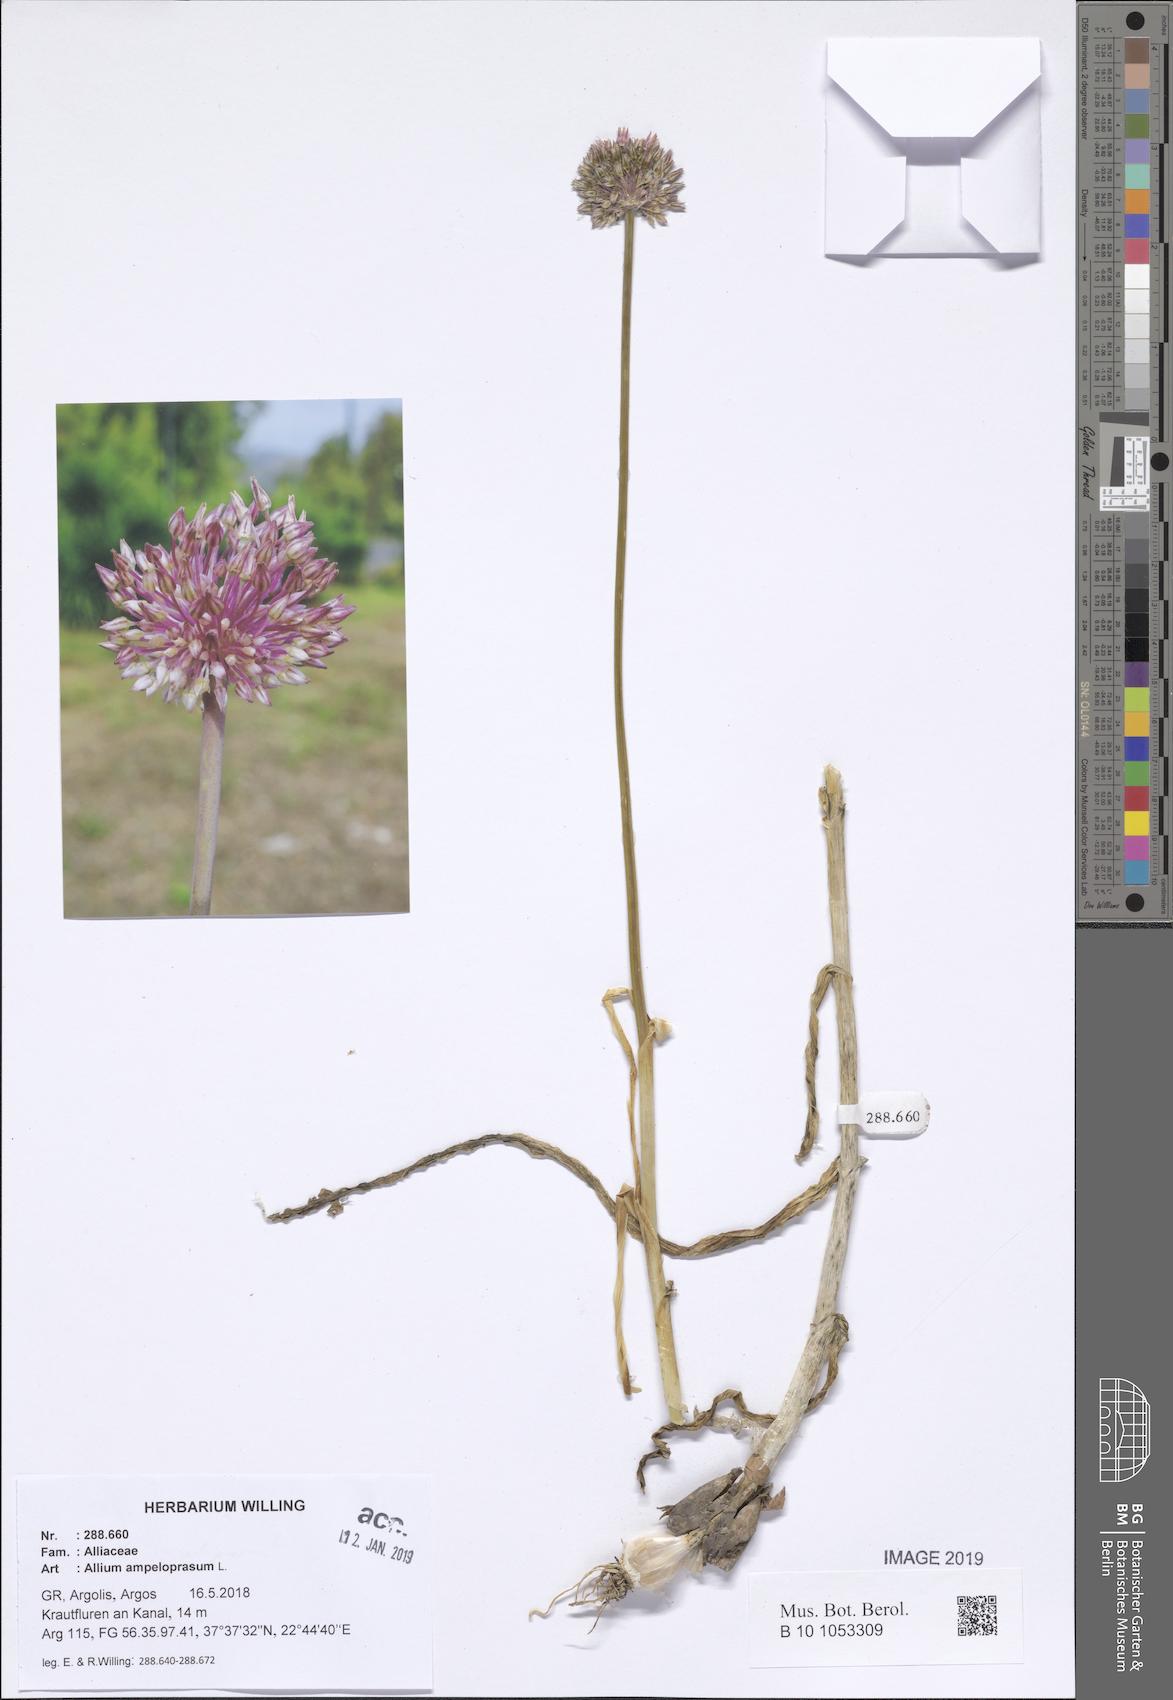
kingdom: Plantae
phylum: Tracheophyta
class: Liliopsida
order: Asparagales
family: Amaryllidaceae
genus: Allium
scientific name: Allium ampeloprasum
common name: Wild leek
